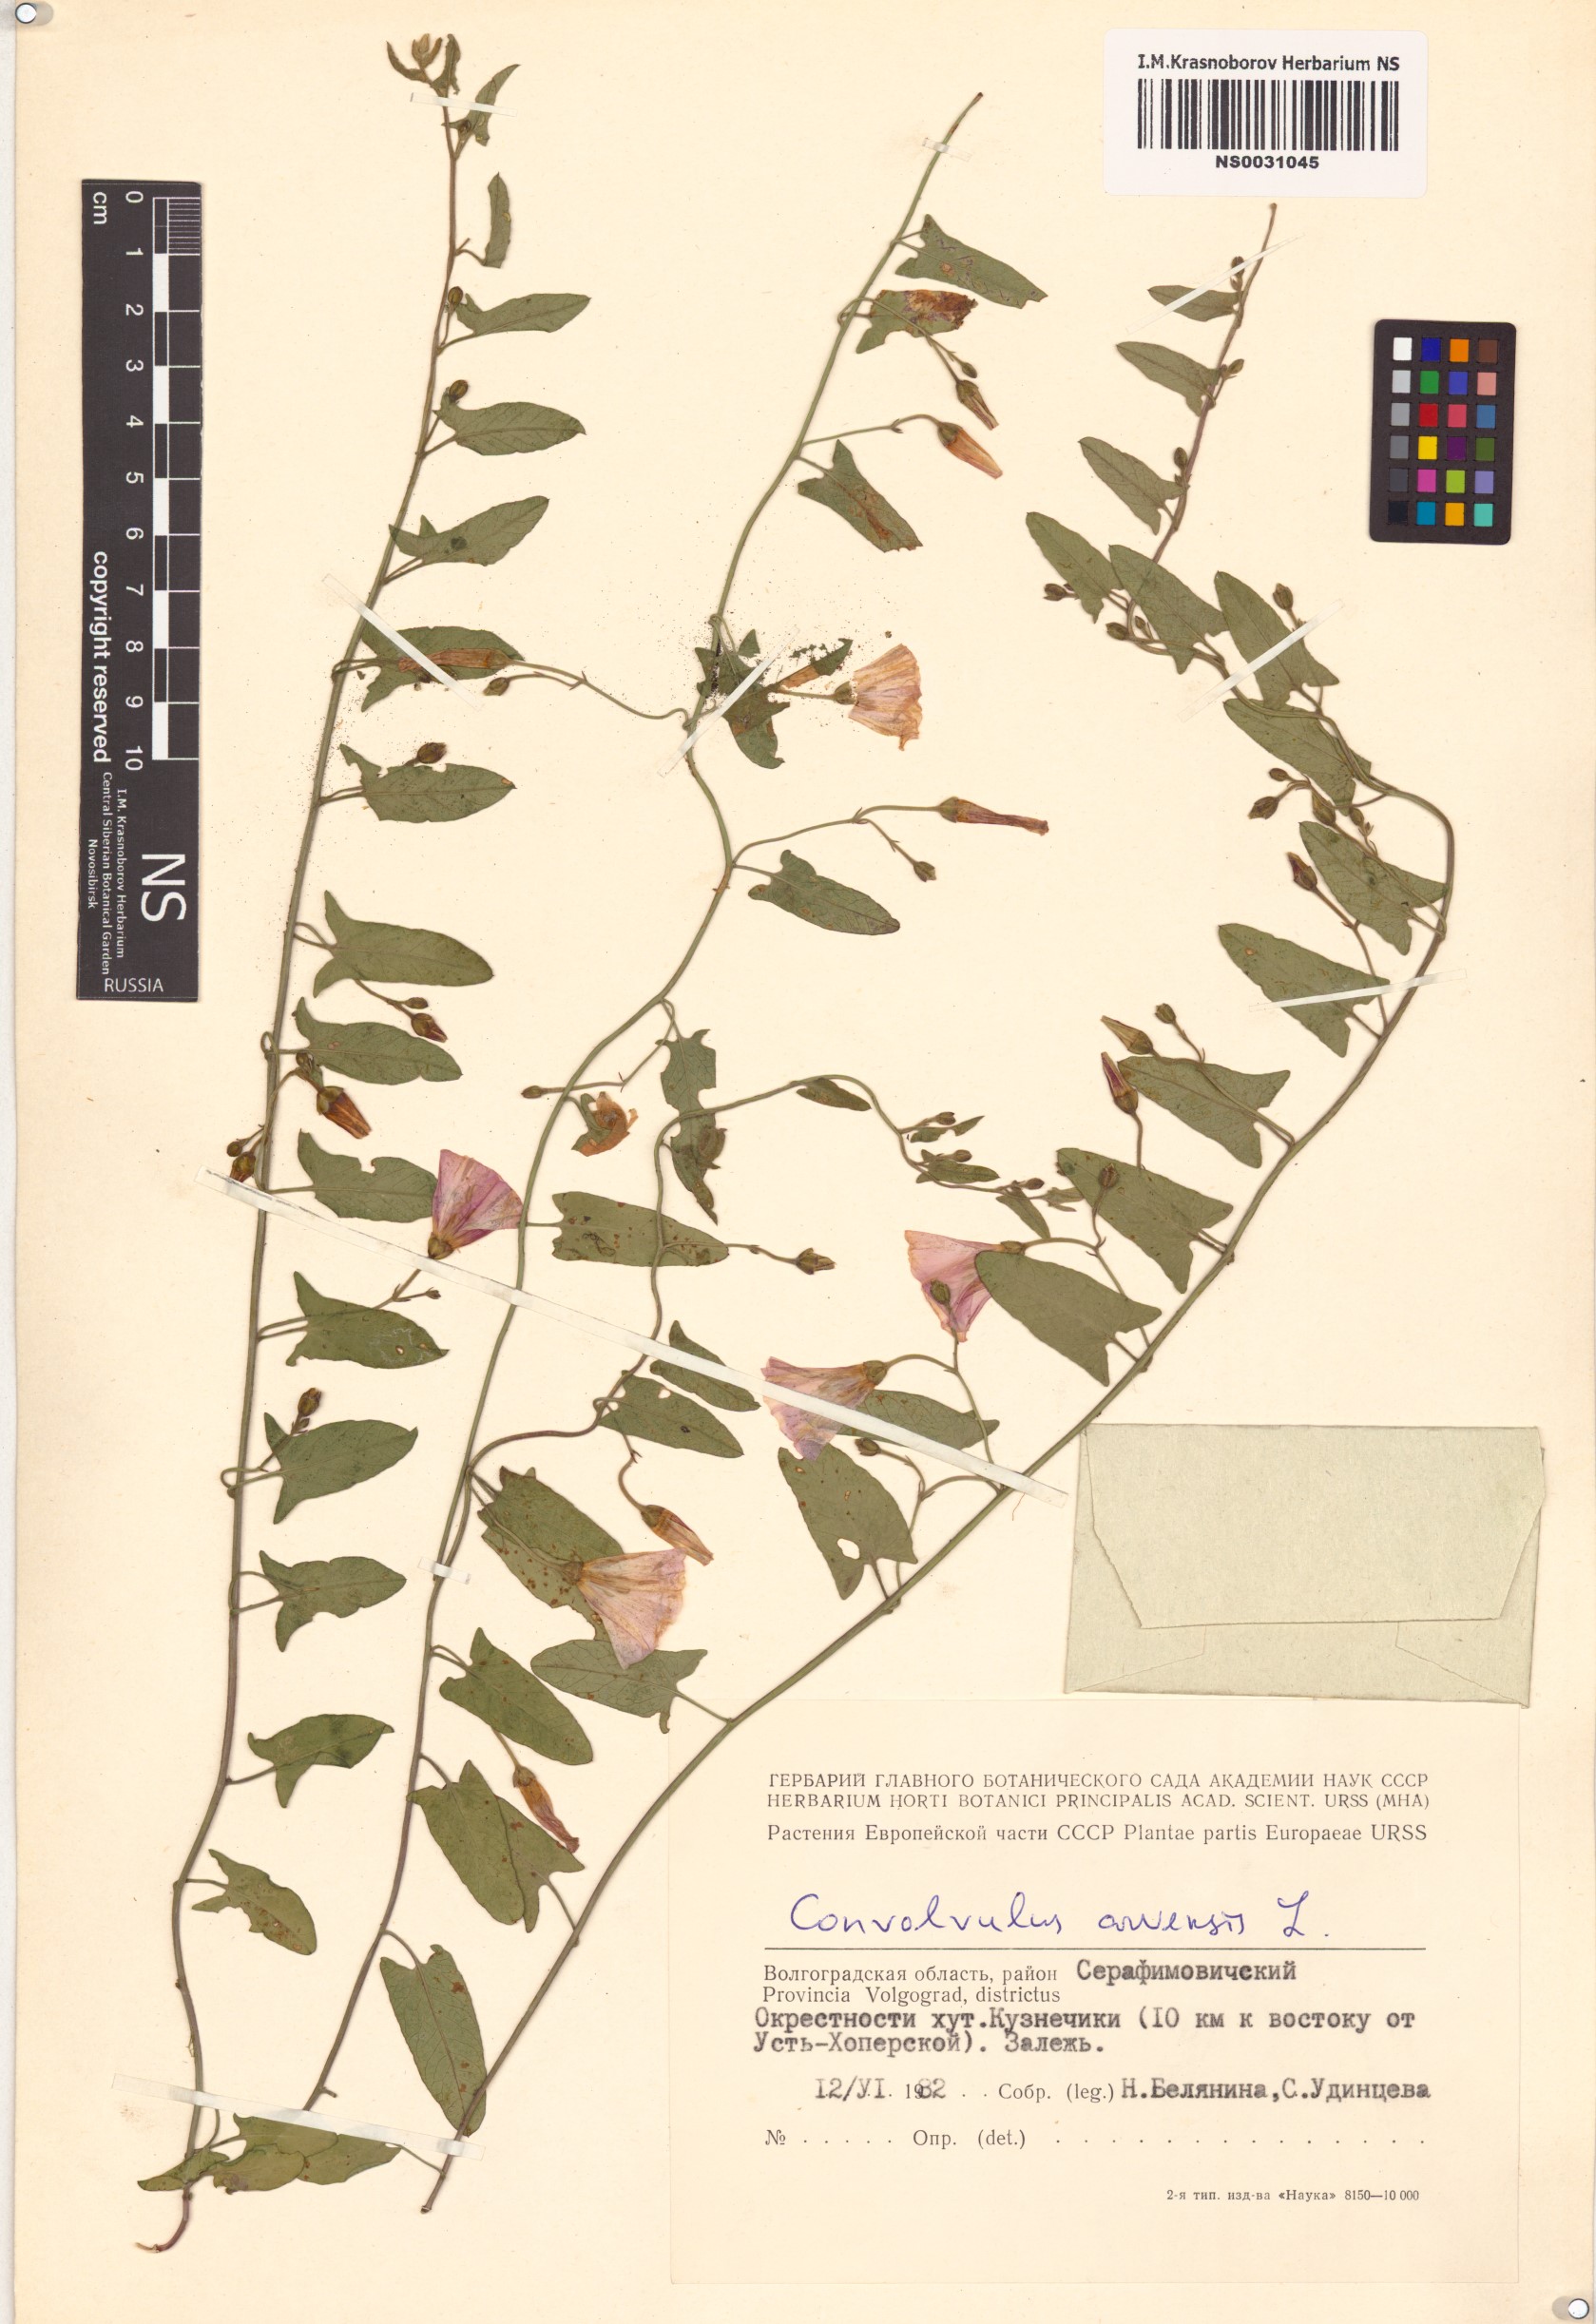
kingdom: Plantae
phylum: Tracheophyta
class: Magnoliopsida
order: Solanales
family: Convolvulaceae
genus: Convolvulus
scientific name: Convolvulus arvensis
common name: Field bindweed
